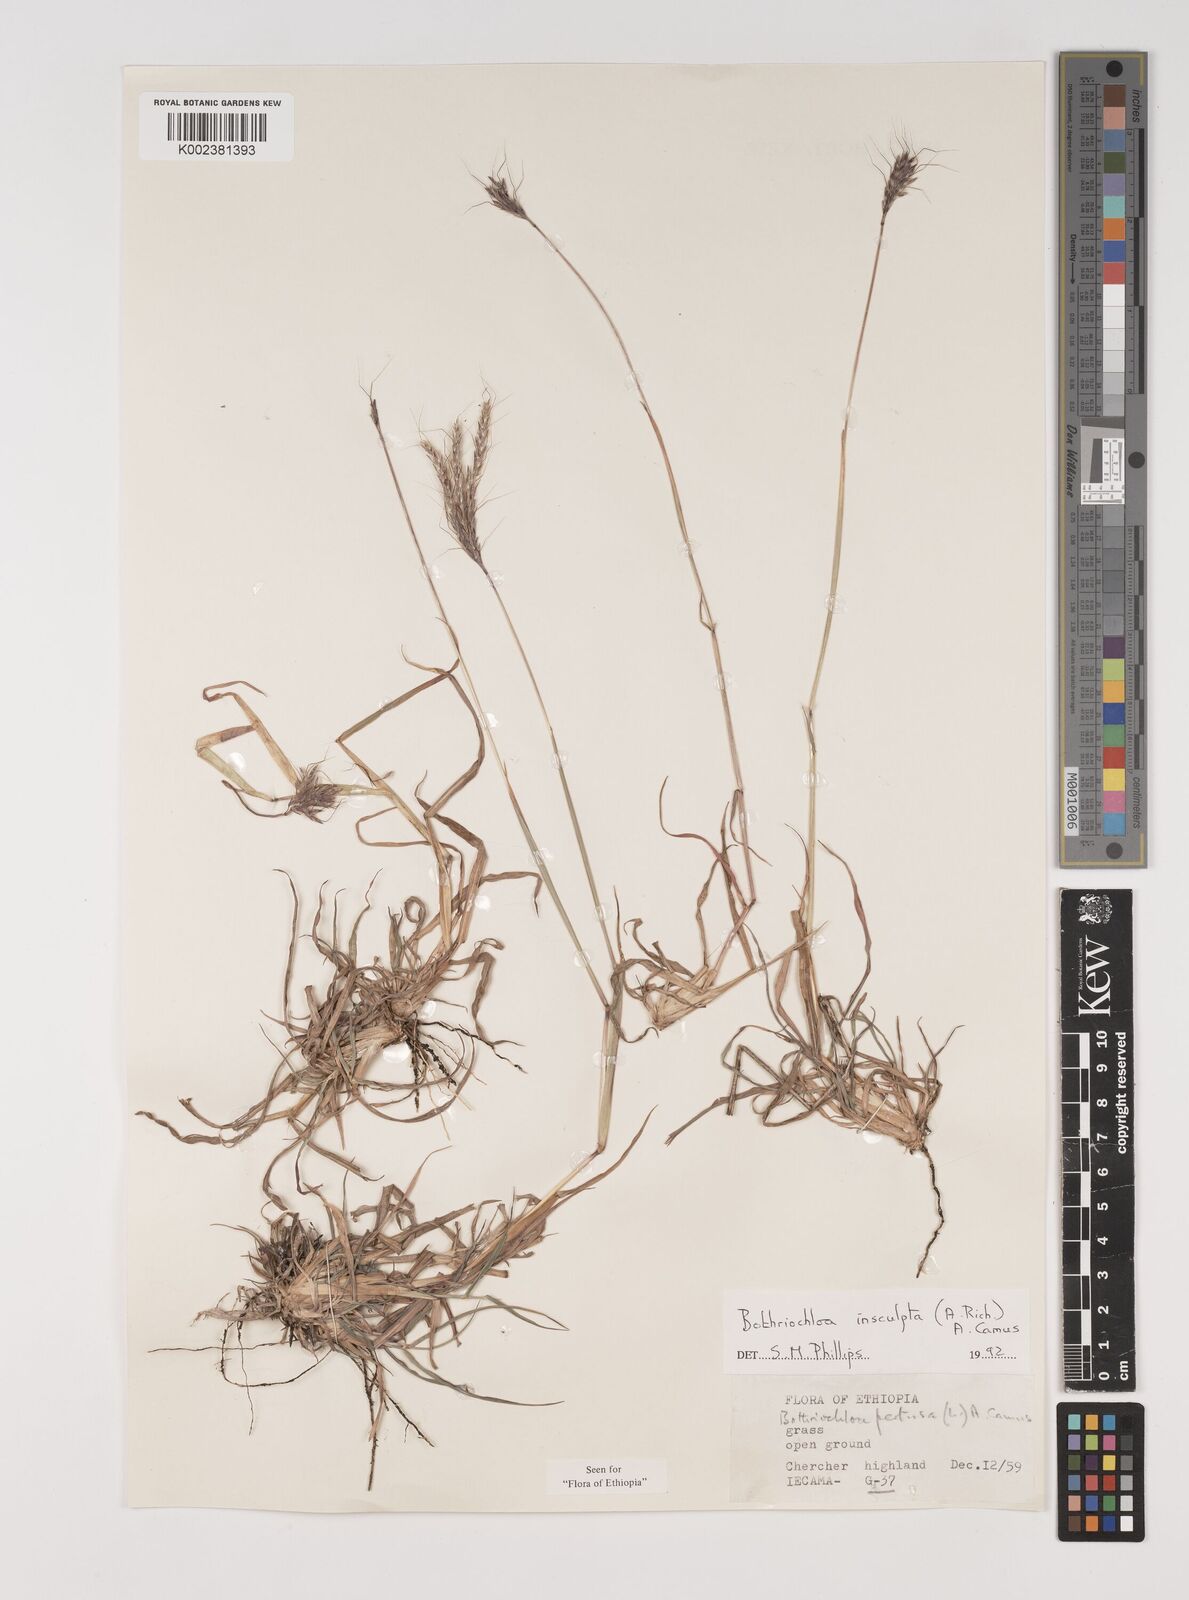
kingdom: Plantae
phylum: Tracheophyta
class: Liliopsida
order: Poales
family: Poaceae
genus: Bothriochloa
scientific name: Bothriochloa insculpta
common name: Creeping-bluegrass
